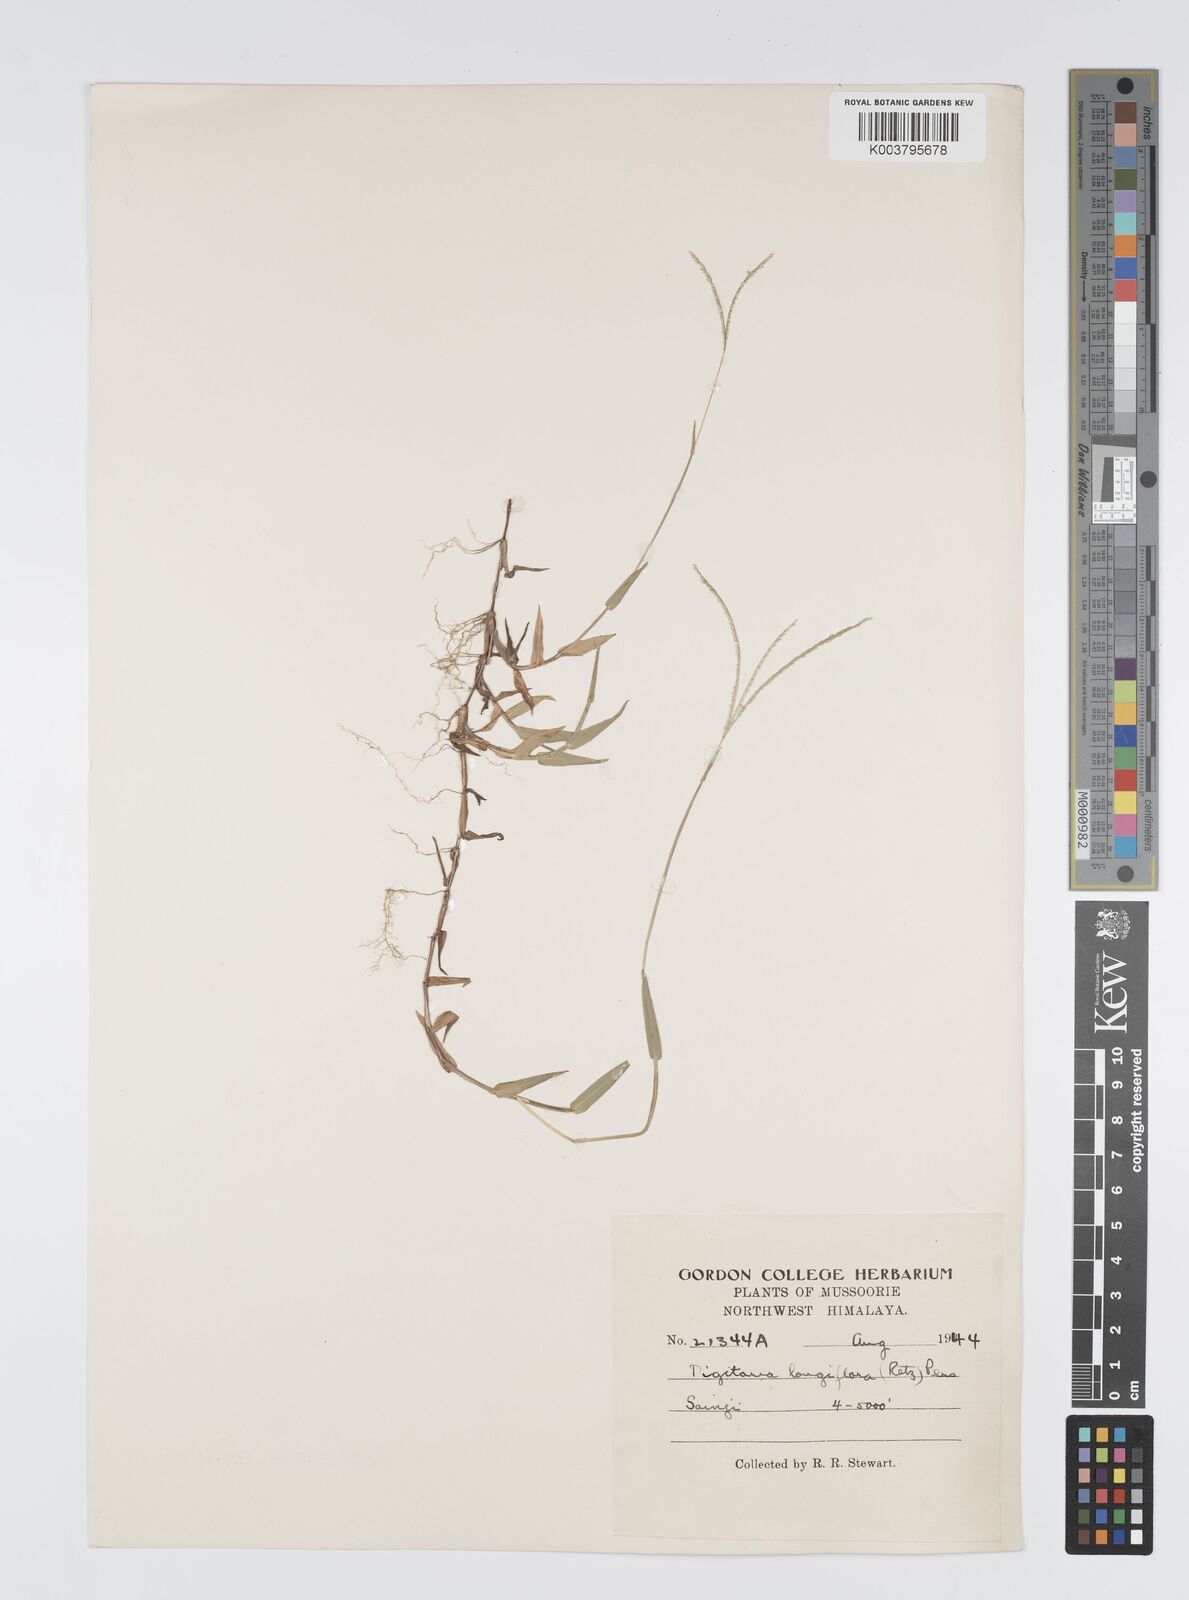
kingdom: Plantae
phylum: Tracheophyta
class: Liliopsida
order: Poales
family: Poaceae
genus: Digitaria
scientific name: Digitaria longiflora
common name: Wire crabgrass
